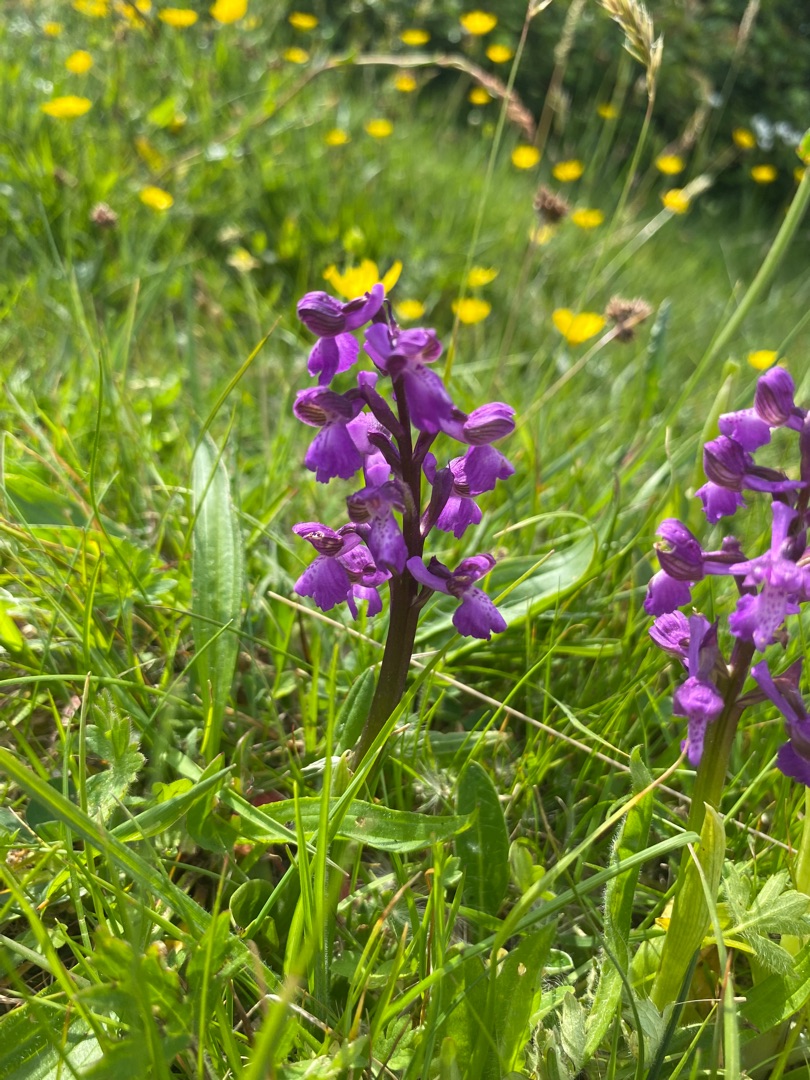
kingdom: Plantae
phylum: Tracheophyta
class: Liliopsida
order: Asparagales
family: Orchidaceae
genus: Anacamptis
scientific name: Anacamptis morio
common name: Salepgøgeurt
